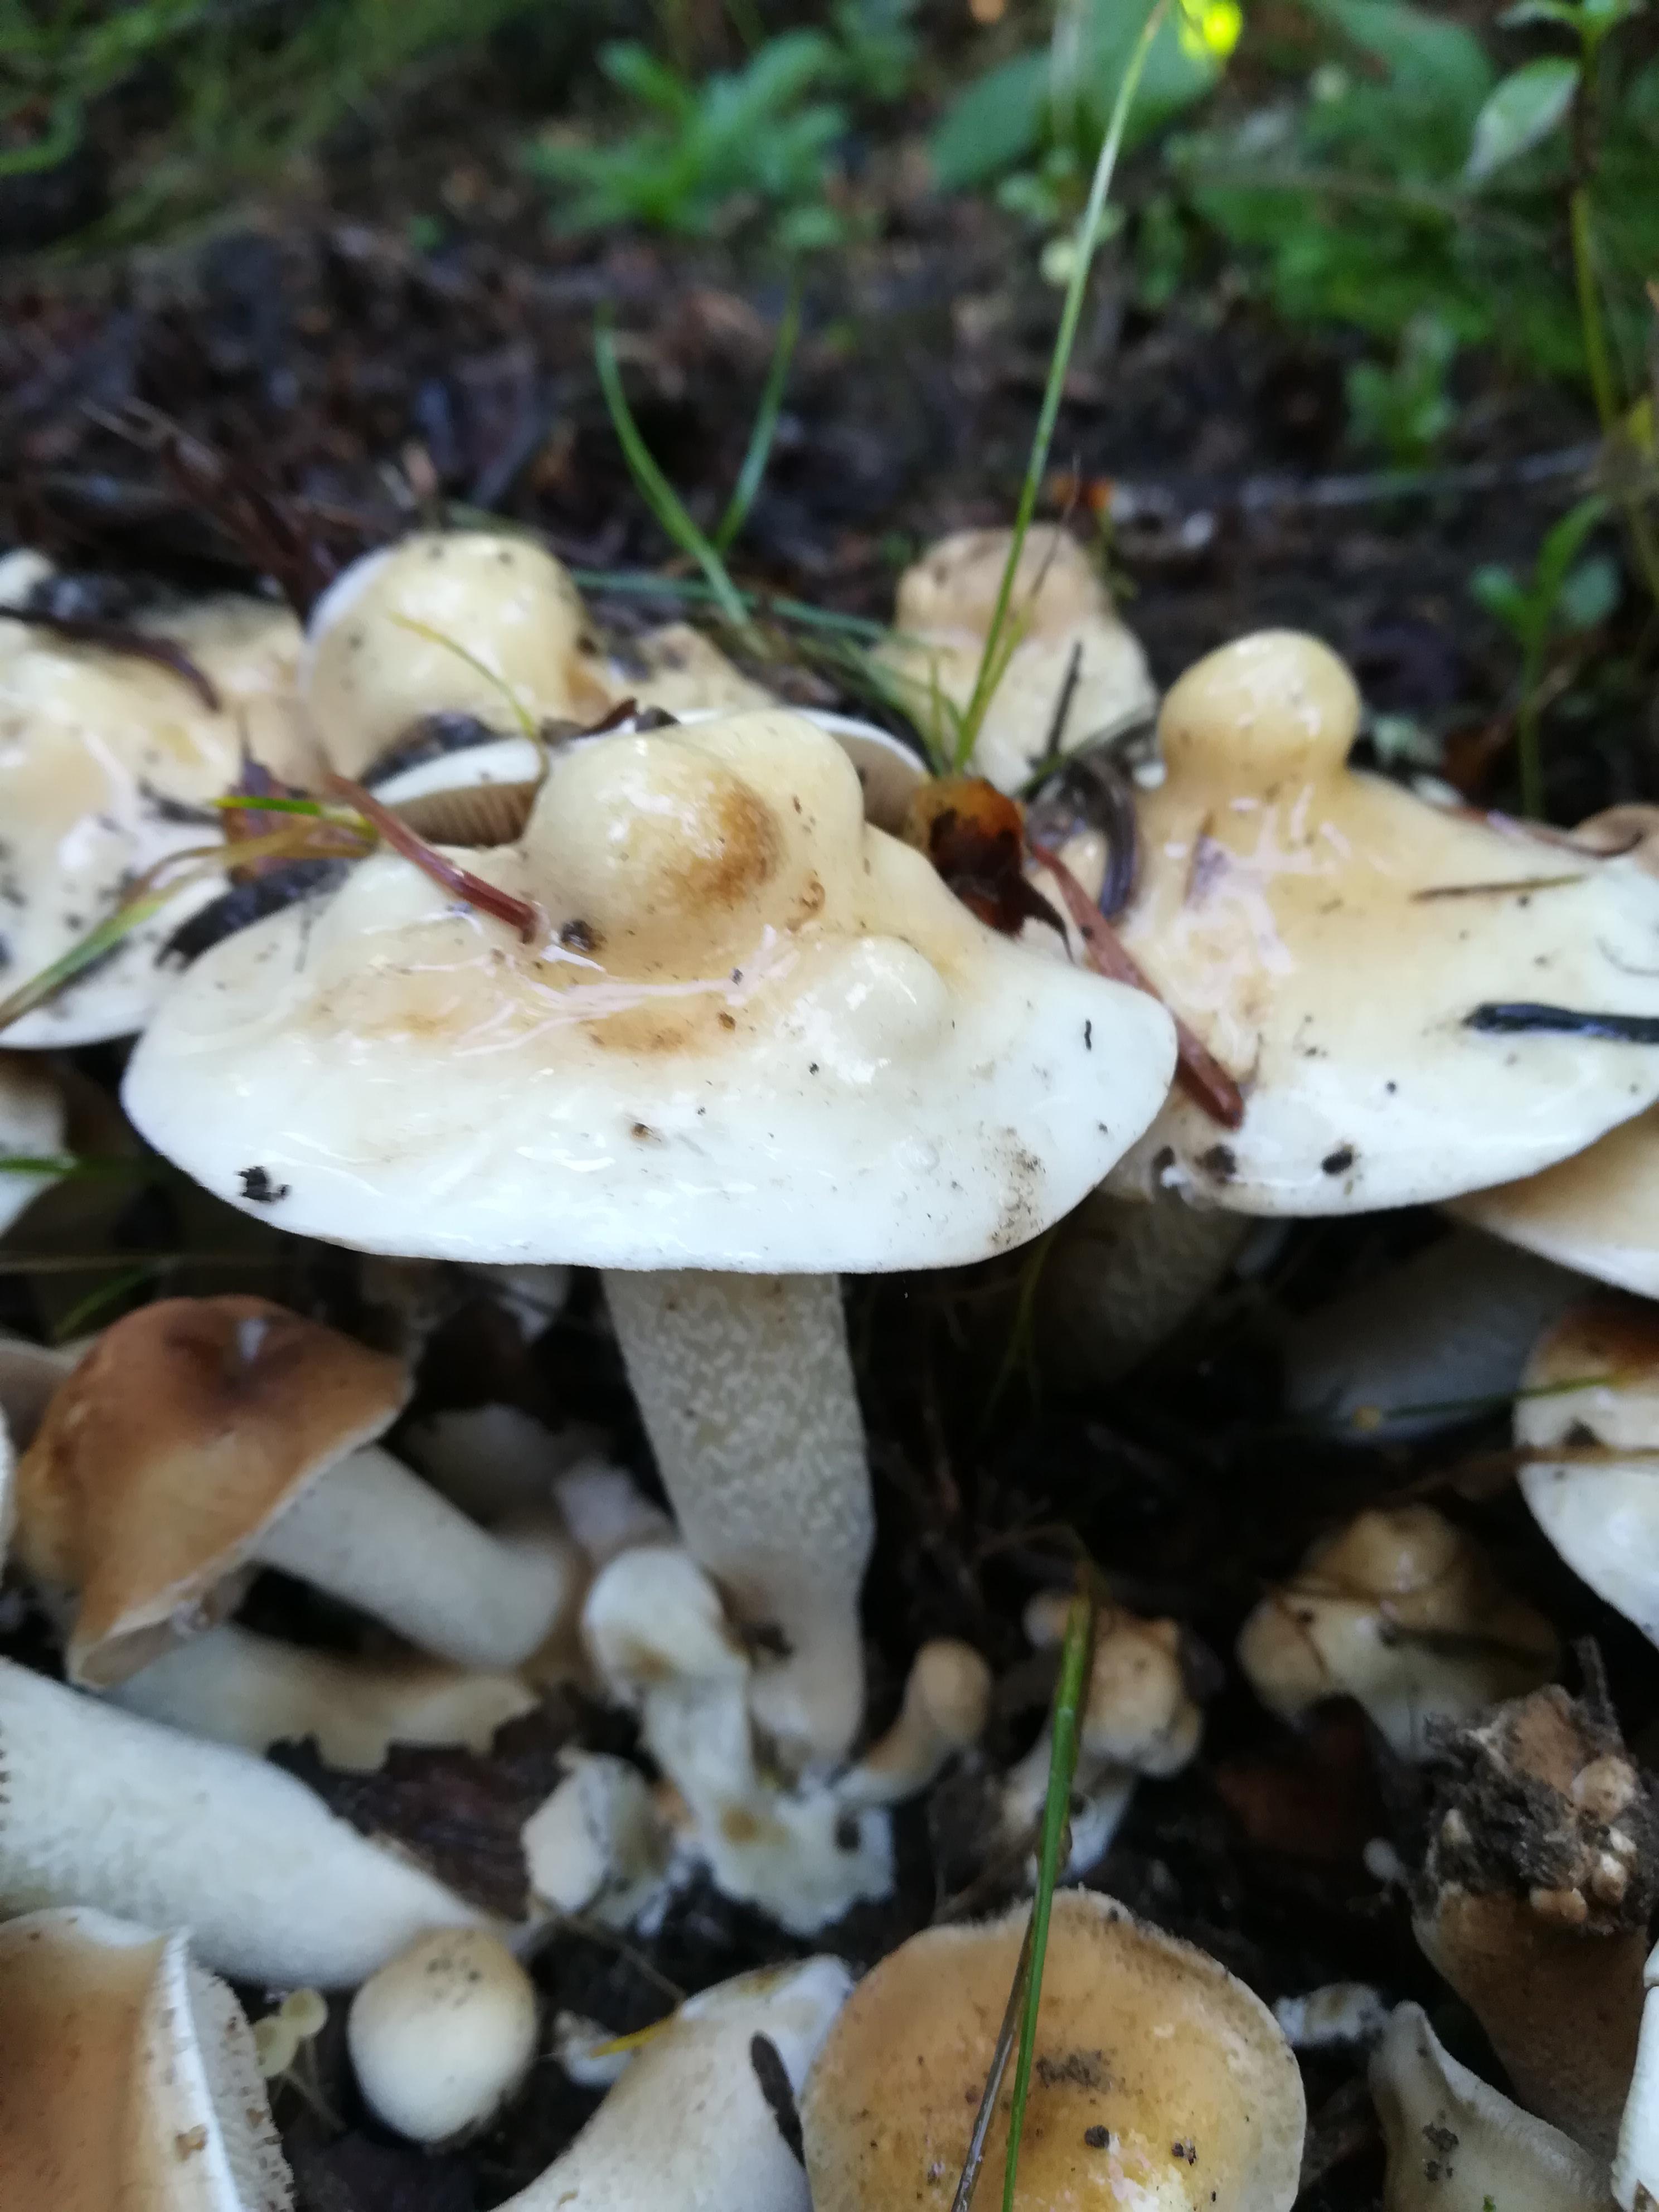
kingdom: Fungi
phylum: Basidiomycota
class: Agaricomycetes
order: Agaricales
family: Hymenogastraceae
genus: Hebeloma
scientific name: Hebeloma
